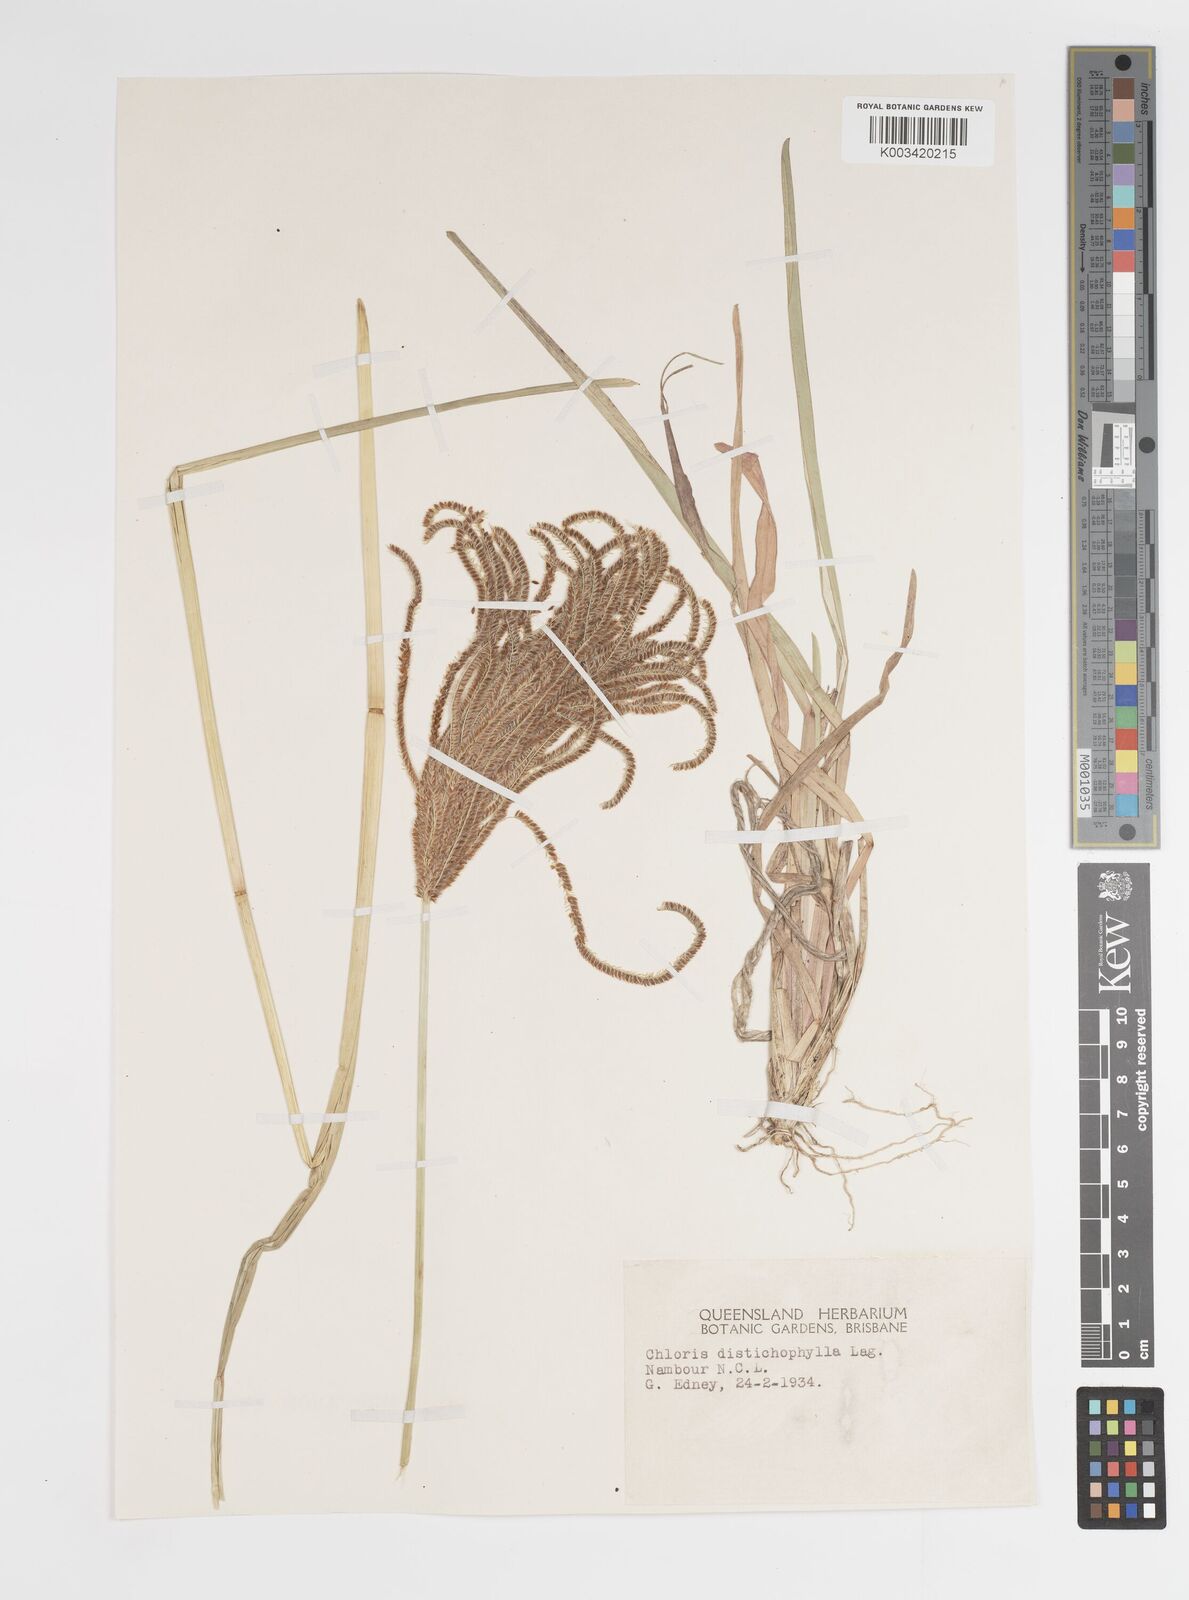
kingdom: Plantae
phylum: Tracheophyta
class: Liliopsida
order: Poales
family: Poaceae
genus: Eustachys
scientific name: Eustachys distichophylla
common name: Weeping fingergrass
